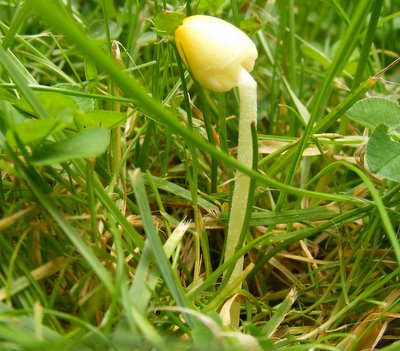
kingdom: Fungi
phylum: Basidiomycota
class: Agaricomycetes
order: Agaricales
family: Bolbitiaceae
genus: Bolbitius
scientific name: Bolbitius titubans
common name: almindelig gulhat
